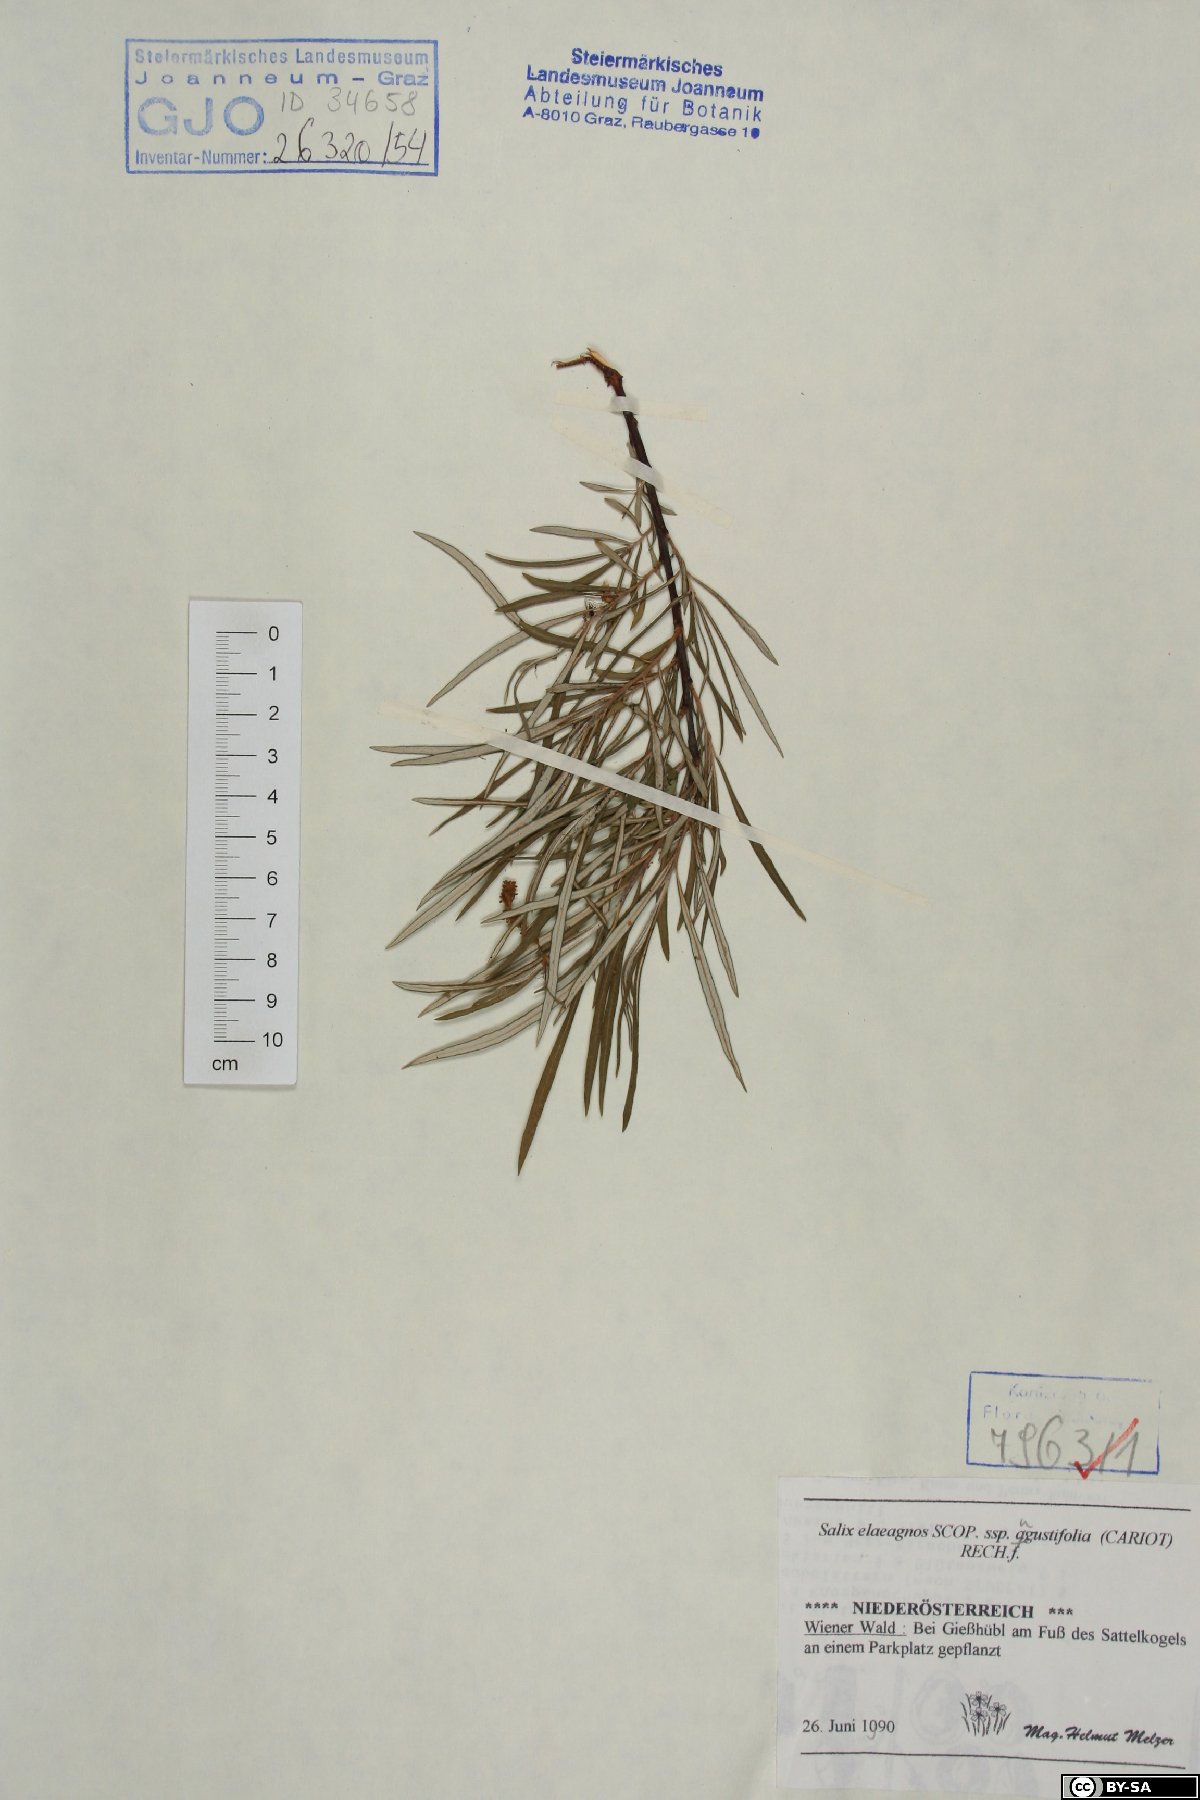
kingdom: Plantae
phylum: Tracheophyta
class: Magnoliopsida
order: Malpighiales
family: Salicaceae
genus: Salix
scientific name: Salix eleagnos
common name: Elaeagnus willow
